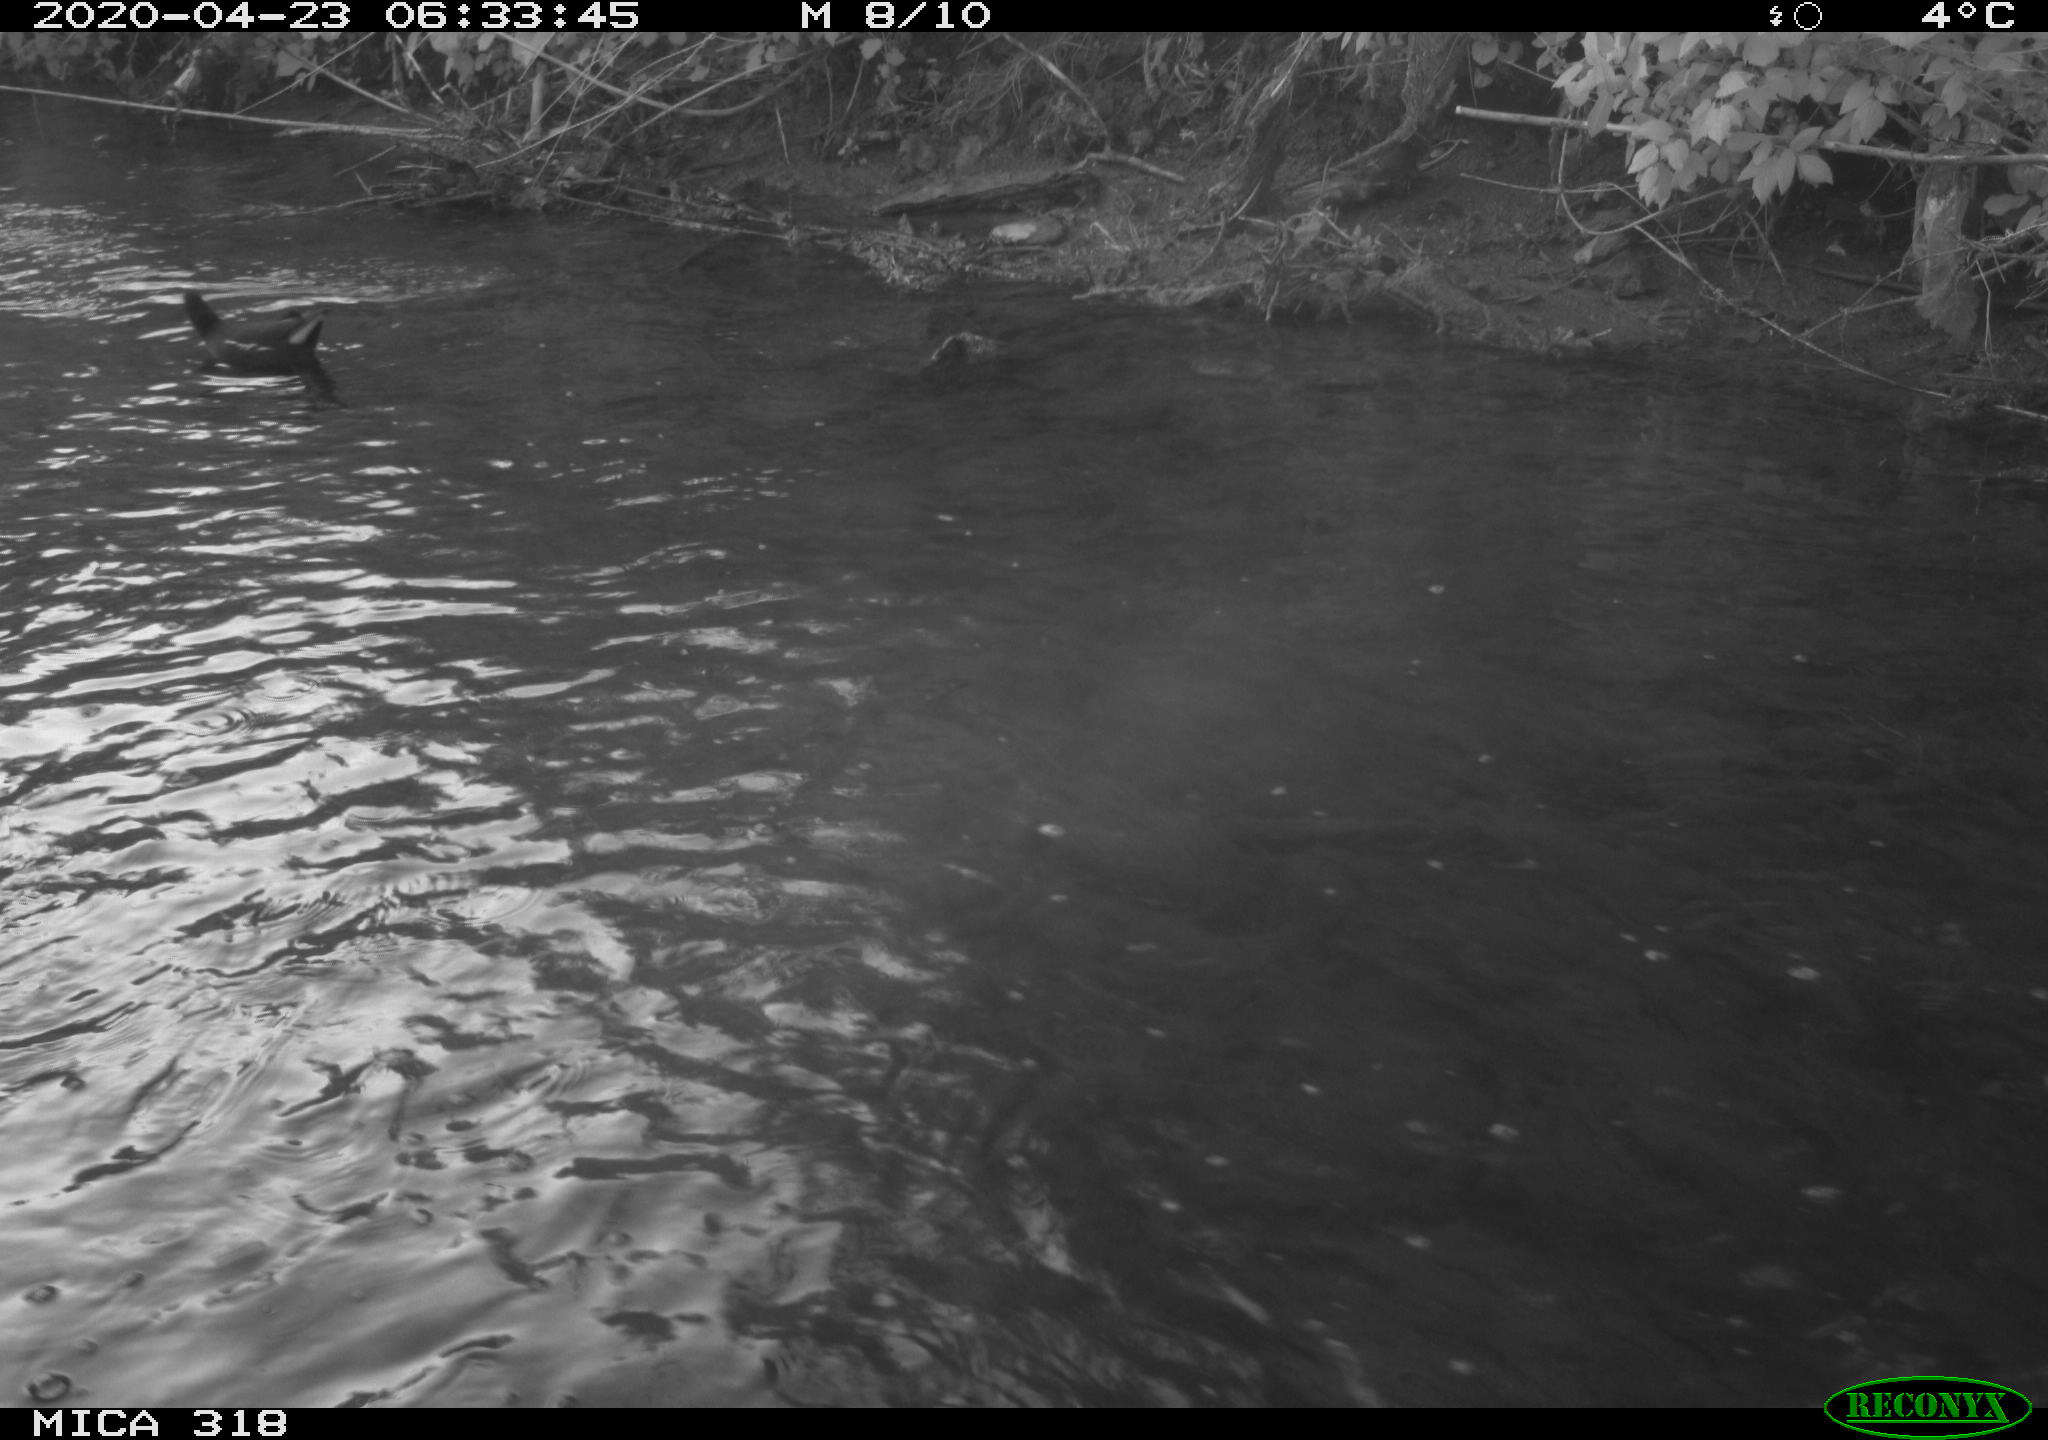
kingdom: Animalia
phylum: Chordata
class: Aves
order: Anseriformes
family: Anatidae
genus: Anas
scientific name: Anas platyrhynchos
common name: Mallard
